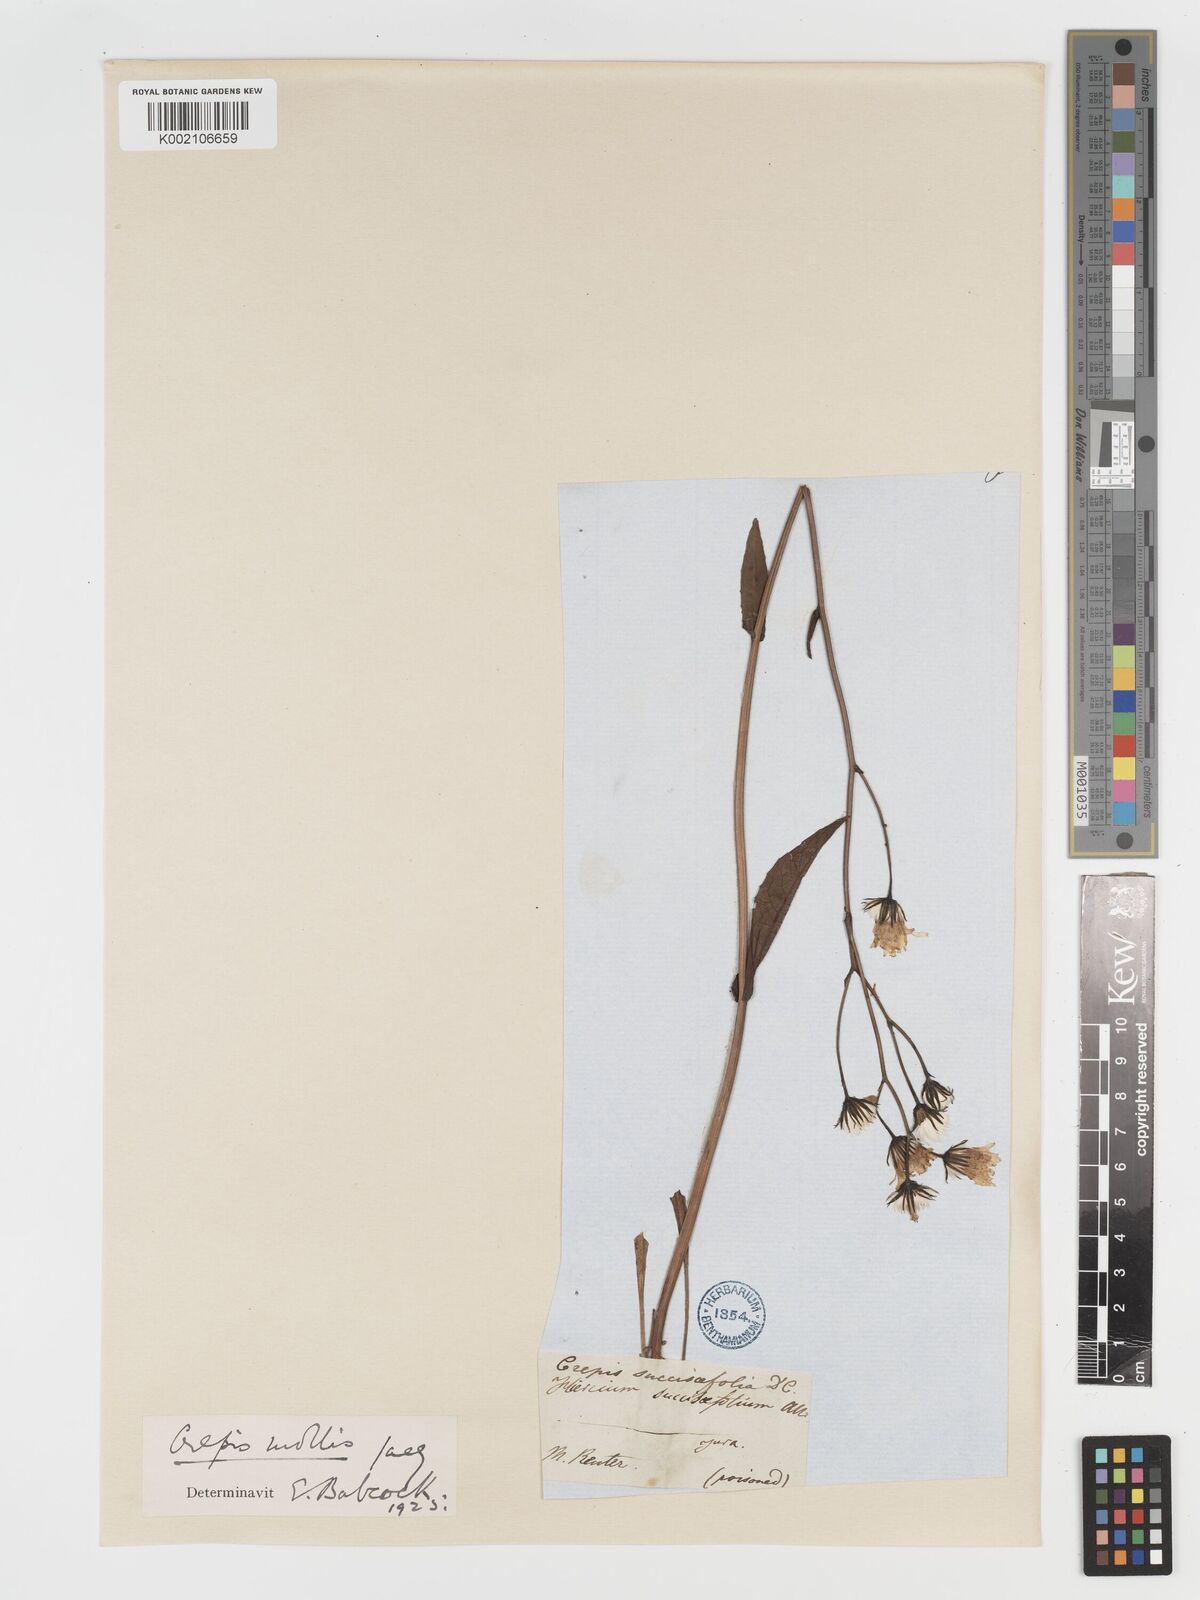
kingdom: Plantae
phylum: Tracheophyta
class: Magnoliopsida
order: Asterales
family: Asteraceae
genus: Crepis
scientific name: Crepis mollis
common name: Northern hawk's-beard
